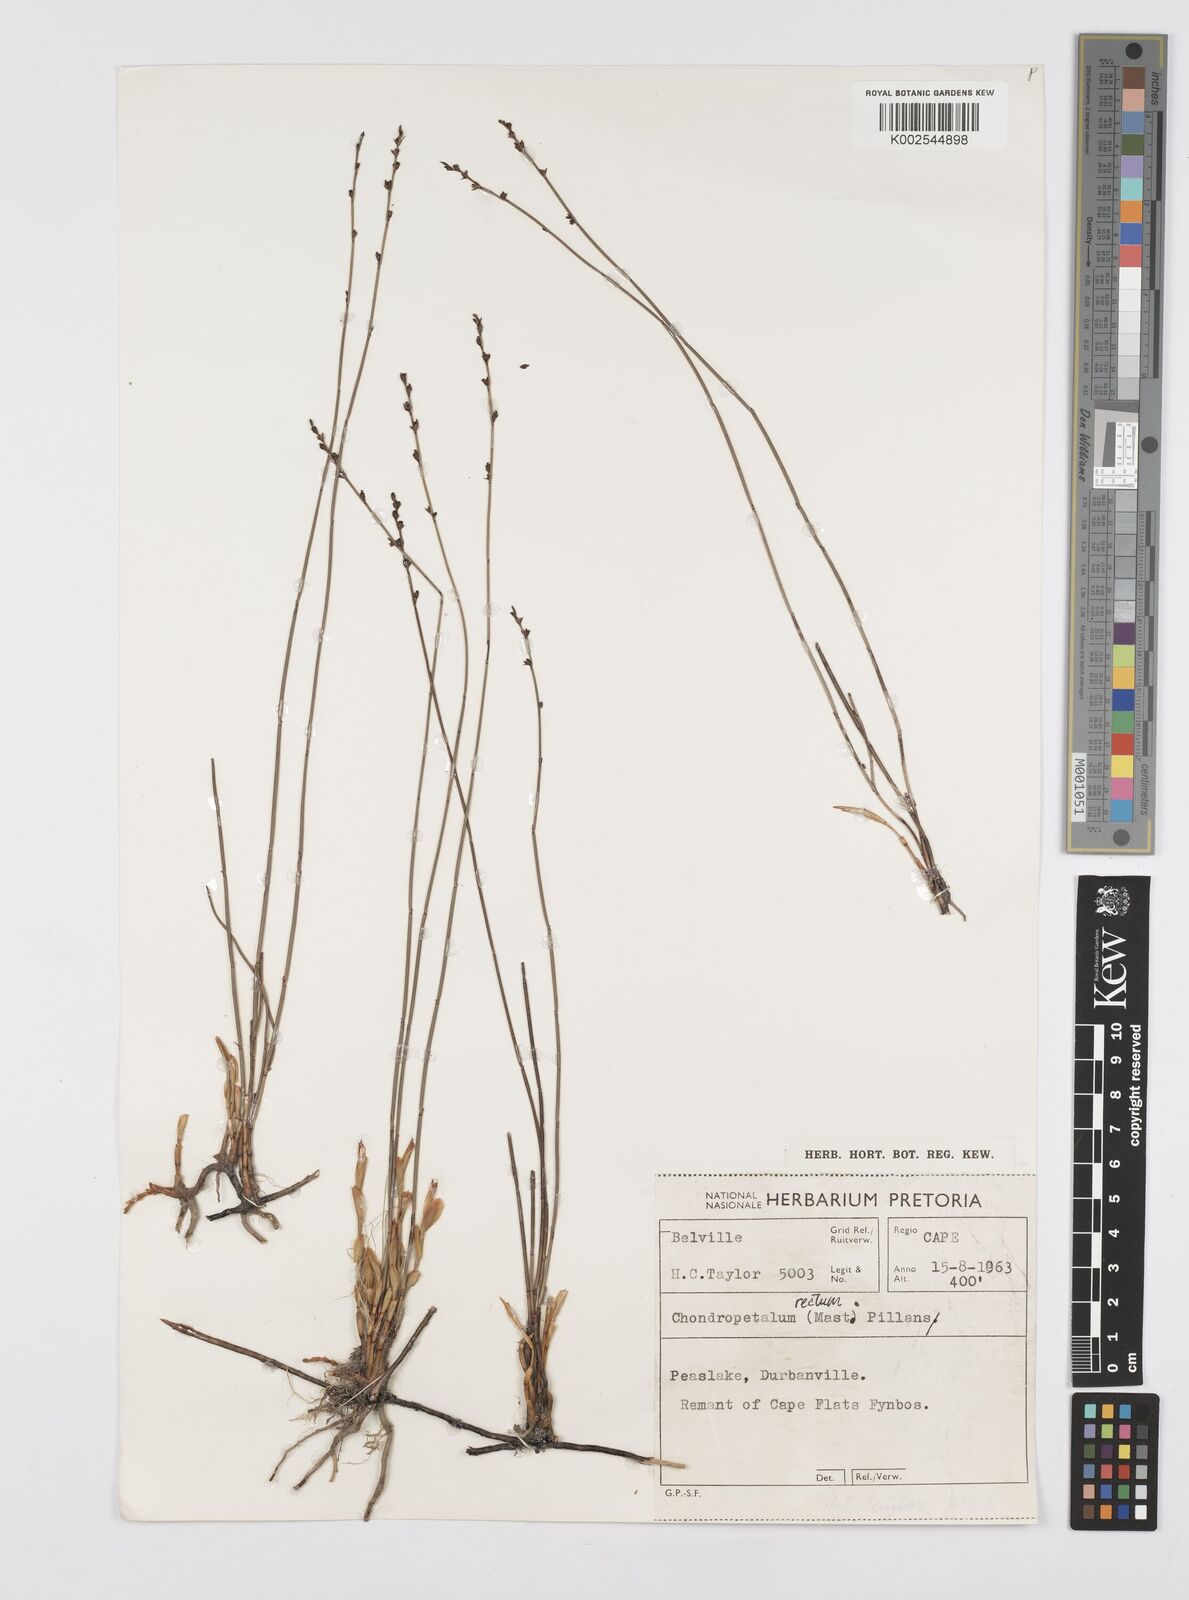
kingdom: Plantae
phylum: Tracheophyta
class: Liliopsida
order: Poales
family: Restionaceae
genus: Elegia
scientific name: Elegia recta
